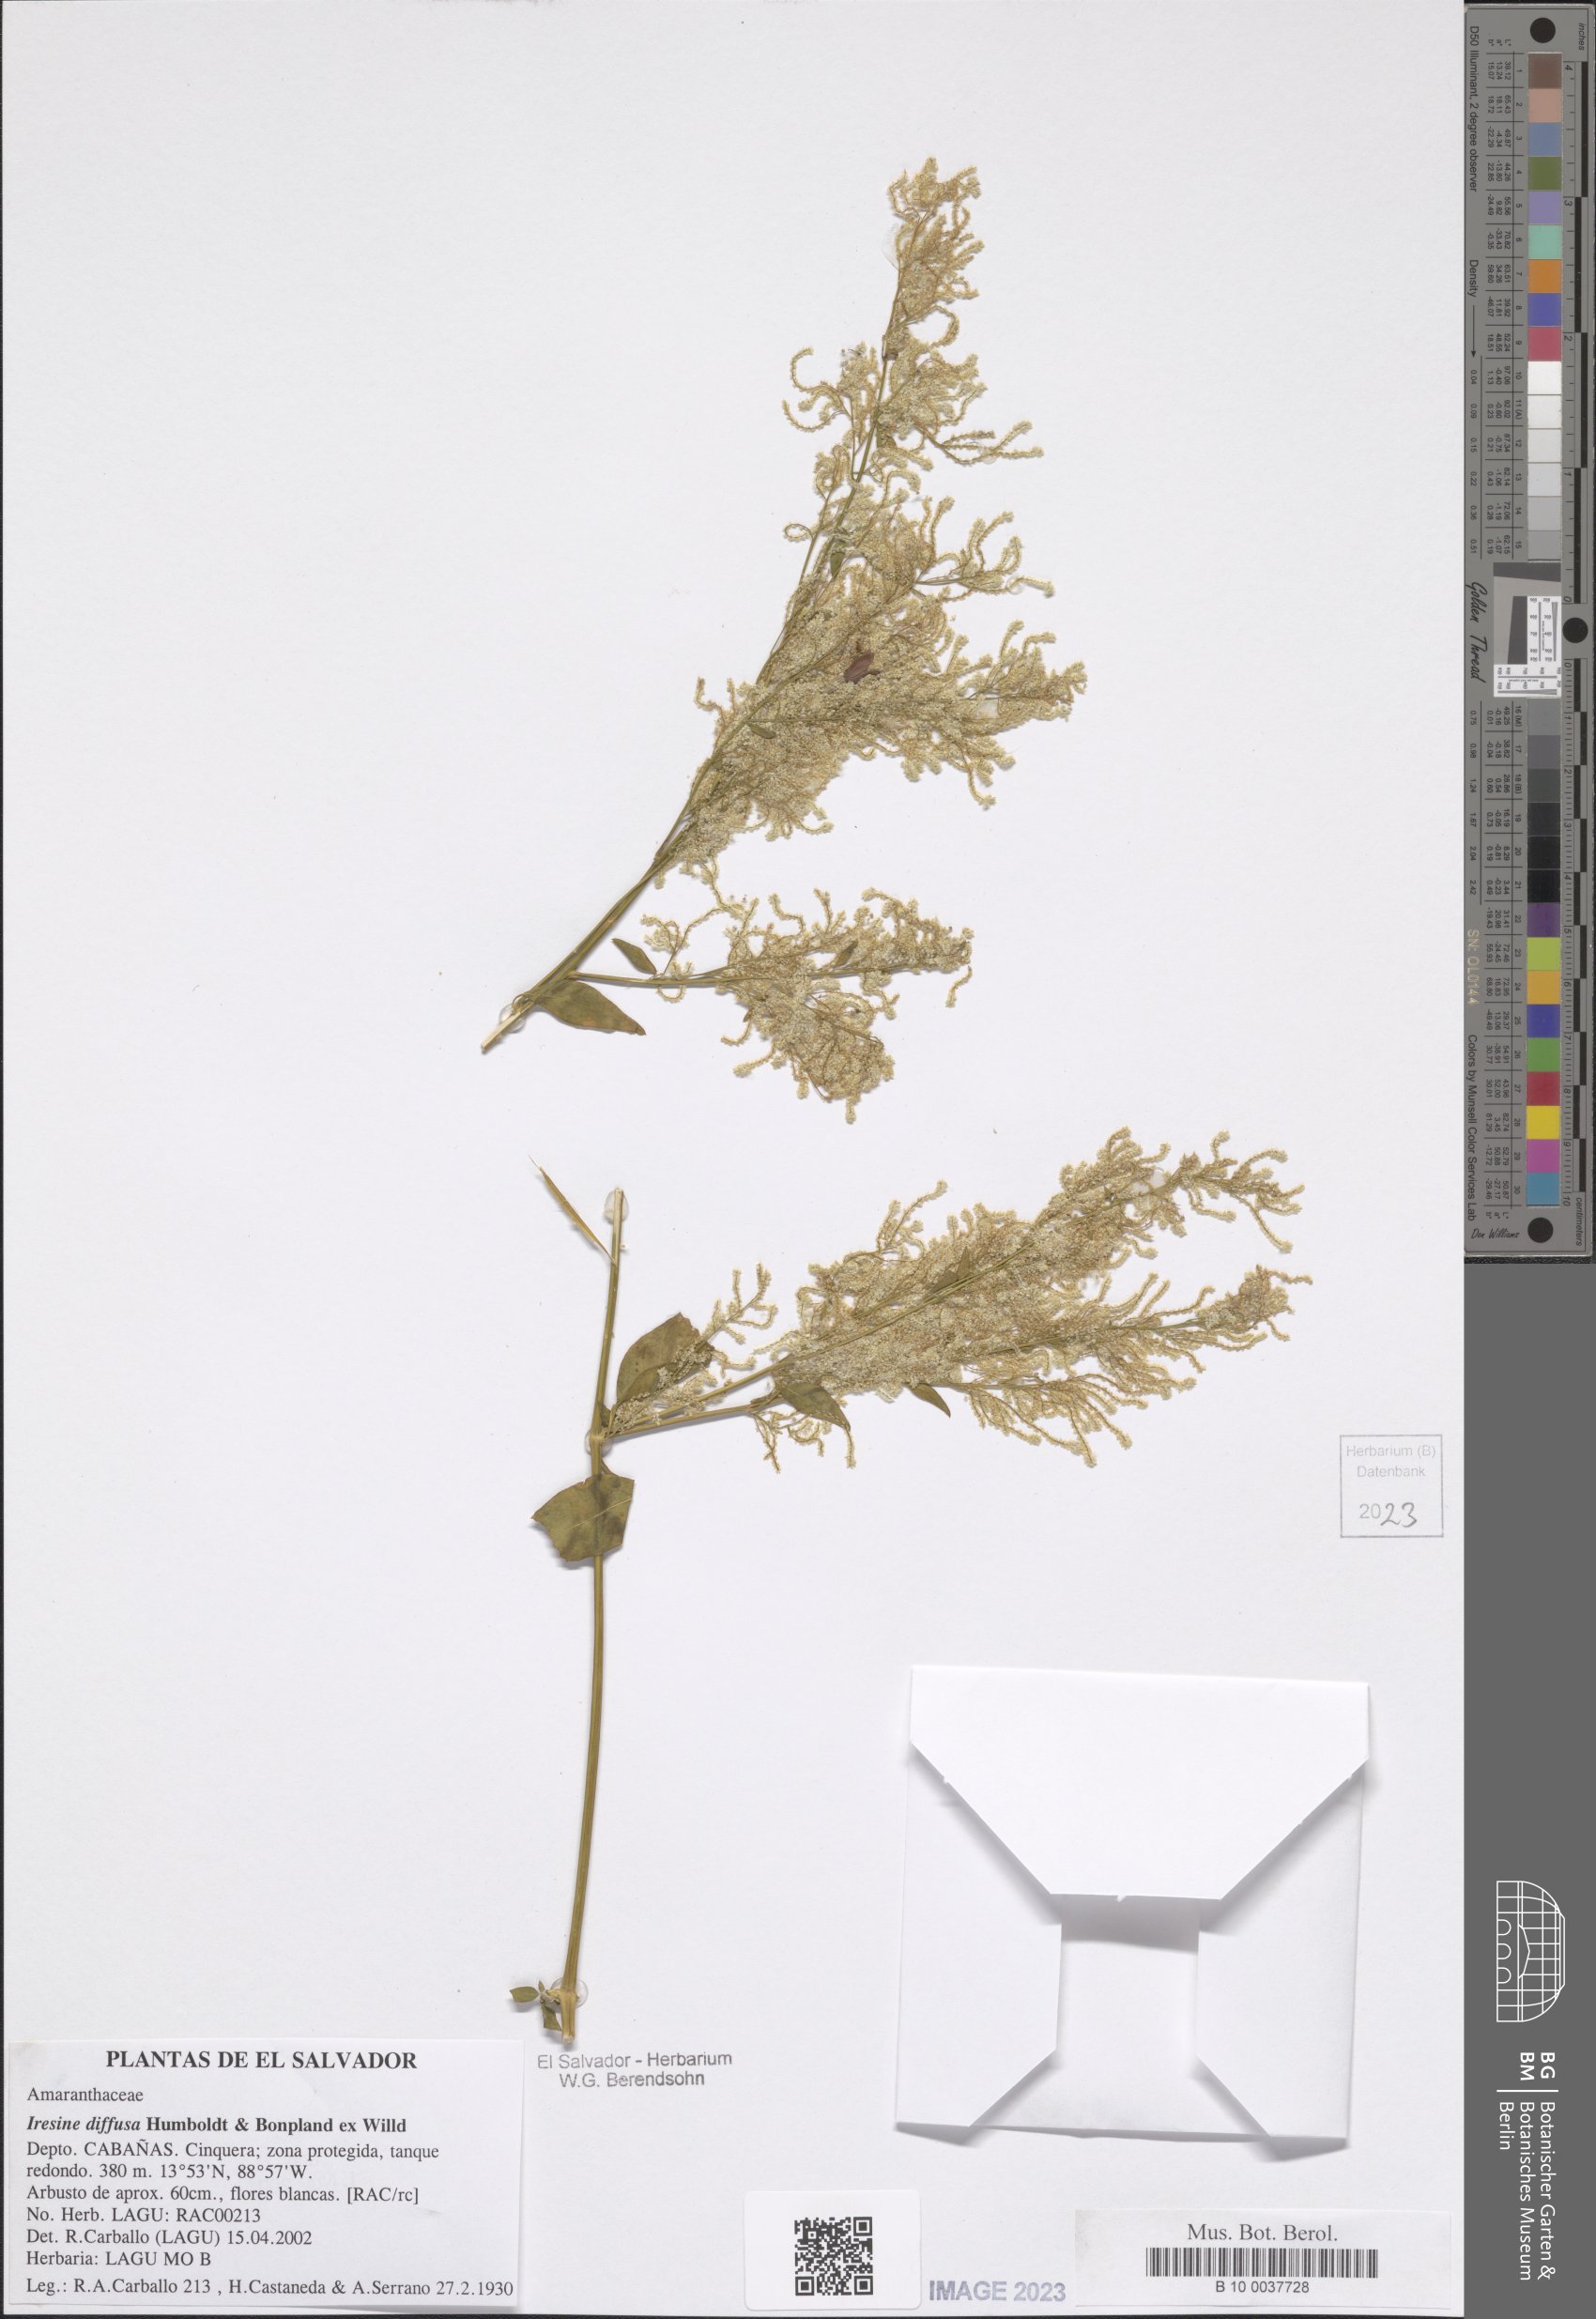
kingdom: Plantae
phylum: Tracheophyta
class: Magnoliopsida
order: Caryophyllales
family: Amaranthaceae
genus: Iresine
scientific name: Iresine diffusa
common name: Juba's-bush
